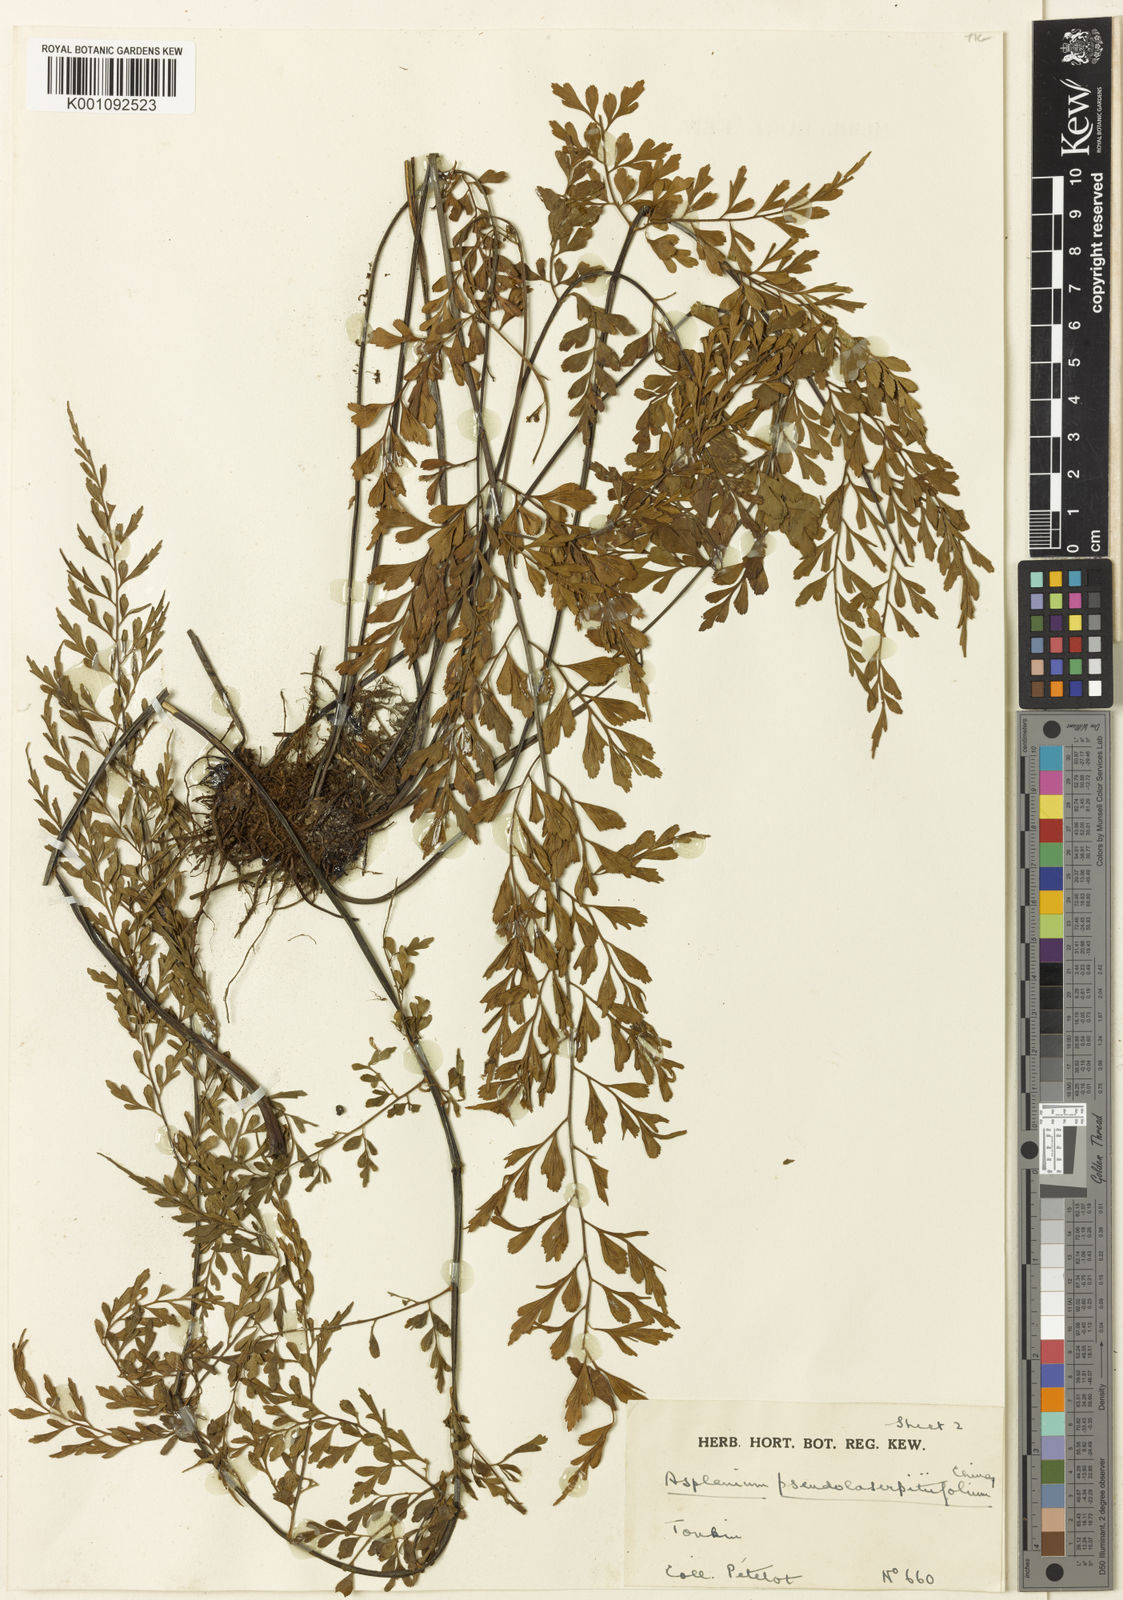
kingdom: Plantae
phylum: Tracheophyta
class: Polypodiopsida
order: Polypodiales
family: Aspleniaceae
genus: Asplenium
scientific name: Asplenium pseudolaserpitiifolium
